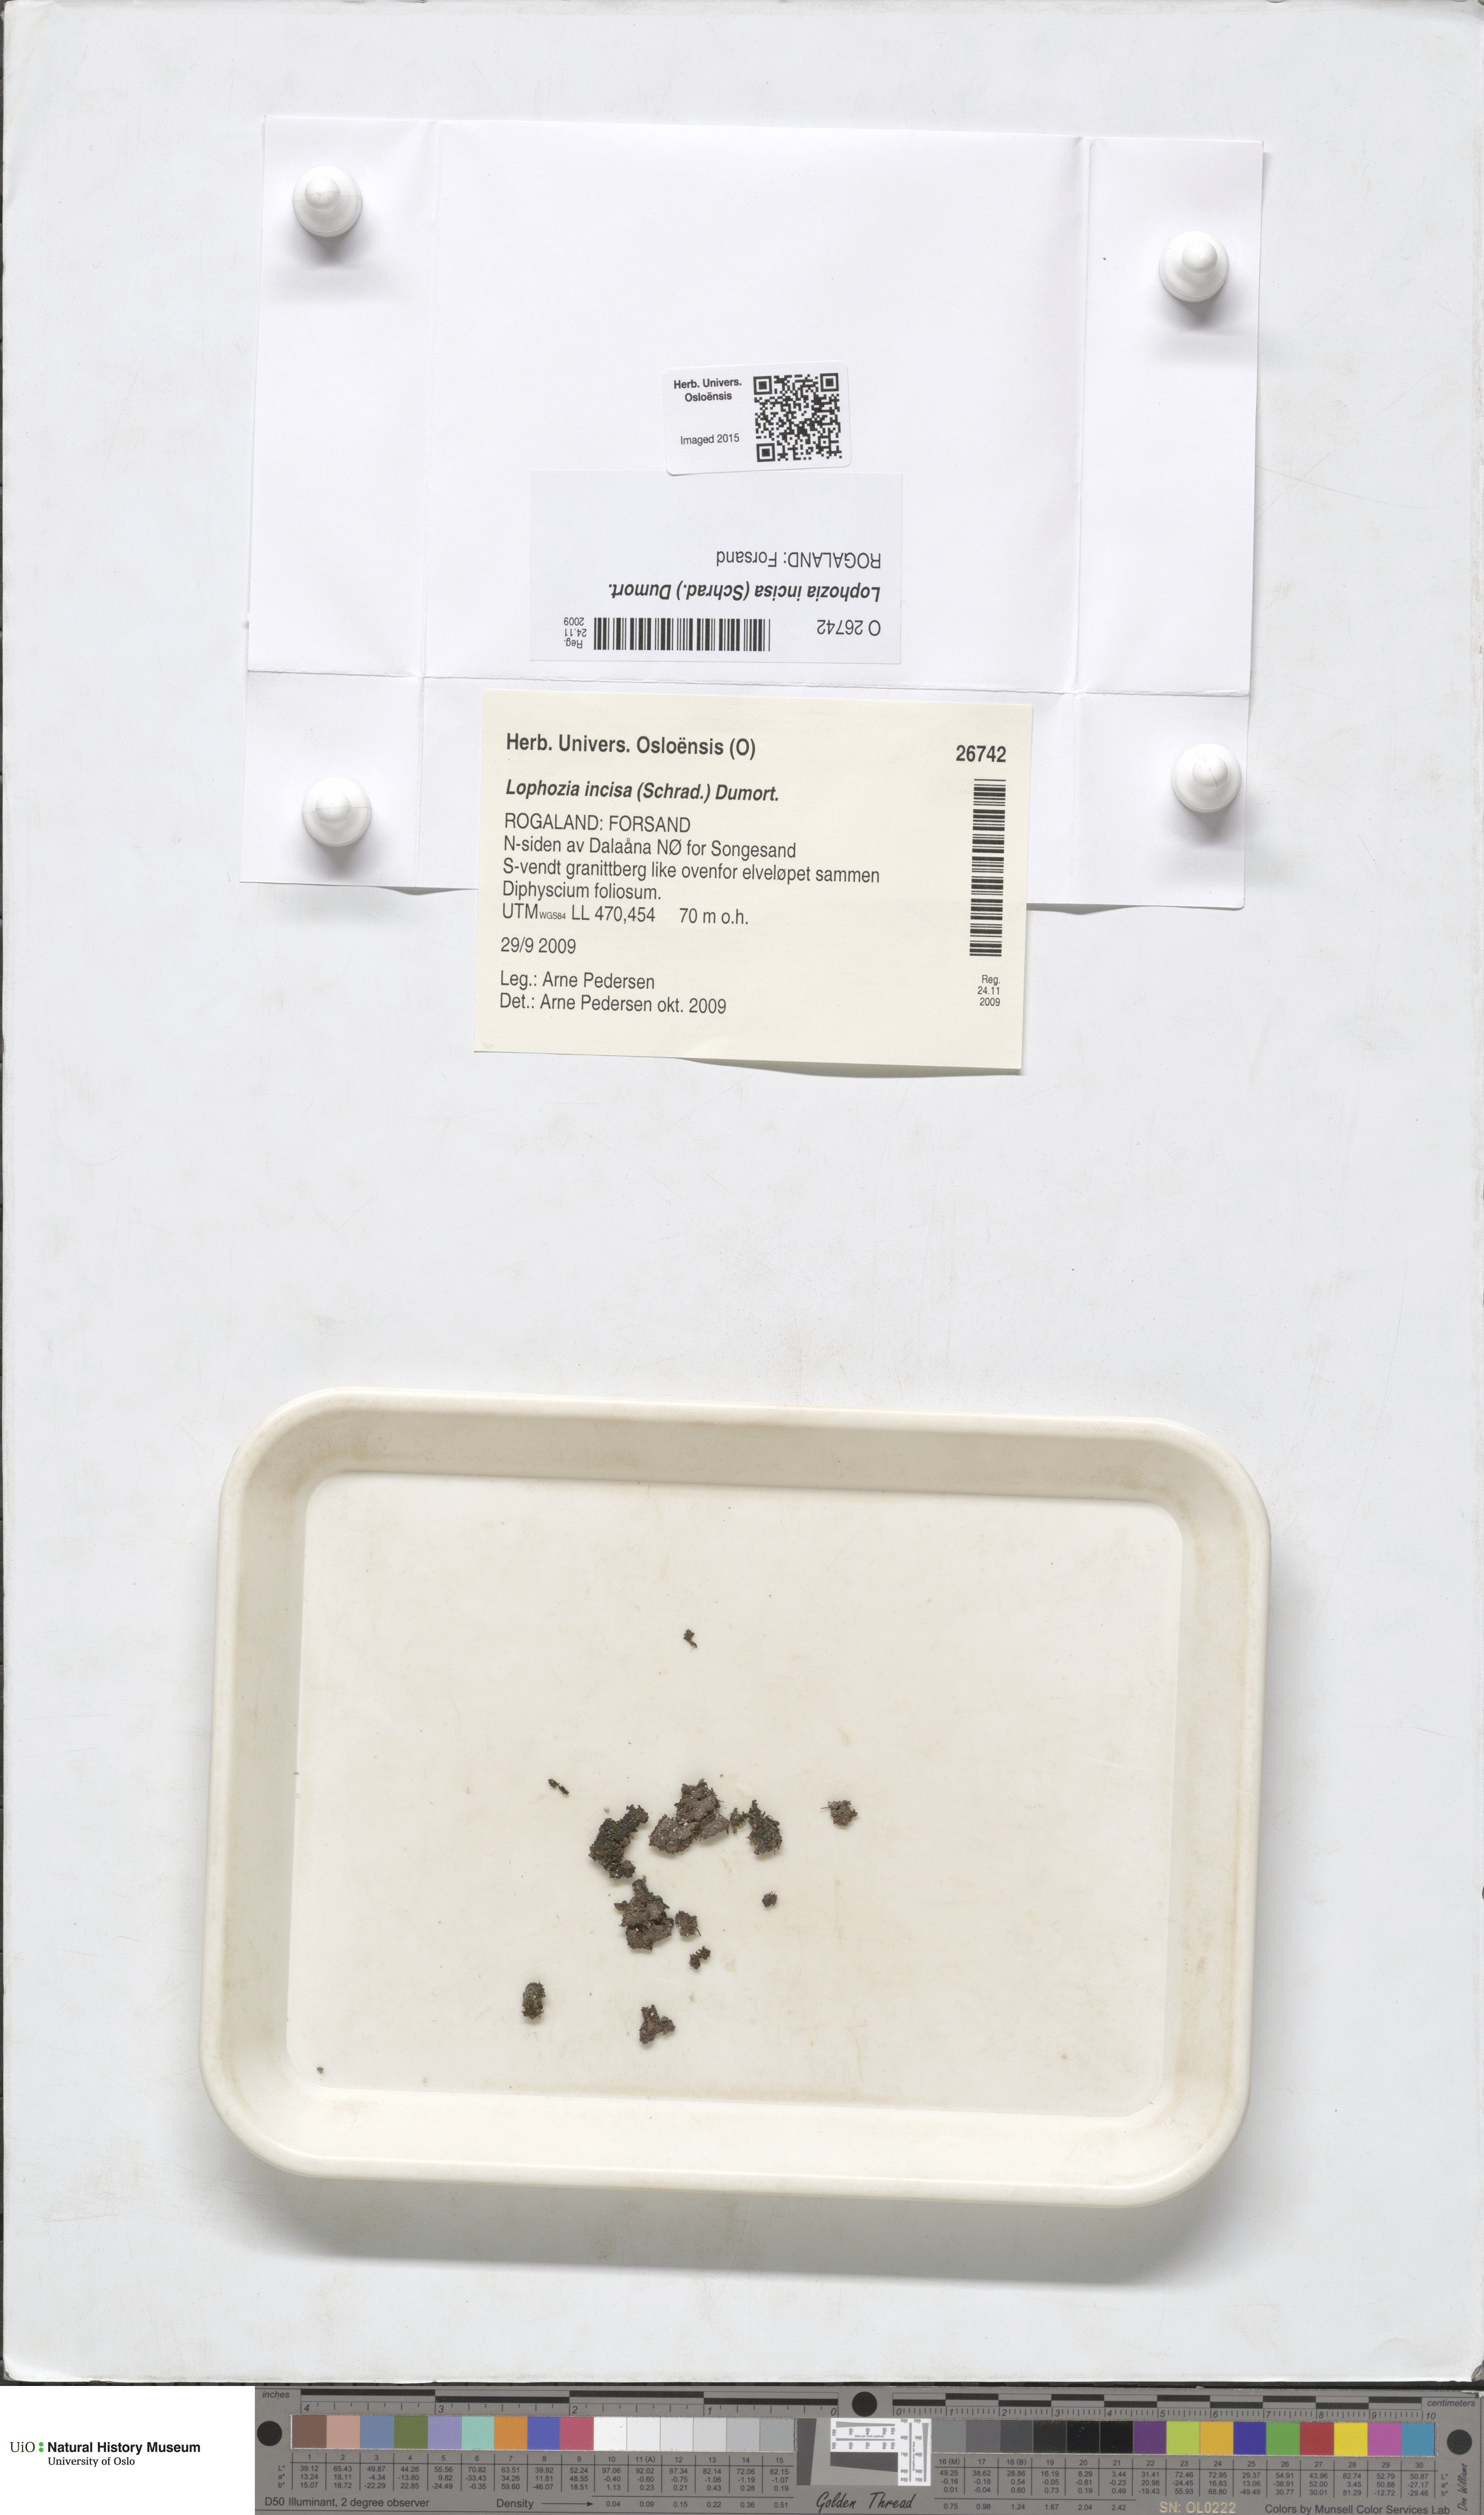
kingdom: Plantae
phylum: Marchantiophyta
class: Jungermanniopsida
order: Jungermanniales
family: Scapaniaceae
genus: Schistochilopsis
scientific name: Schistochilopsis incisa
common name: Jagged notchwort
